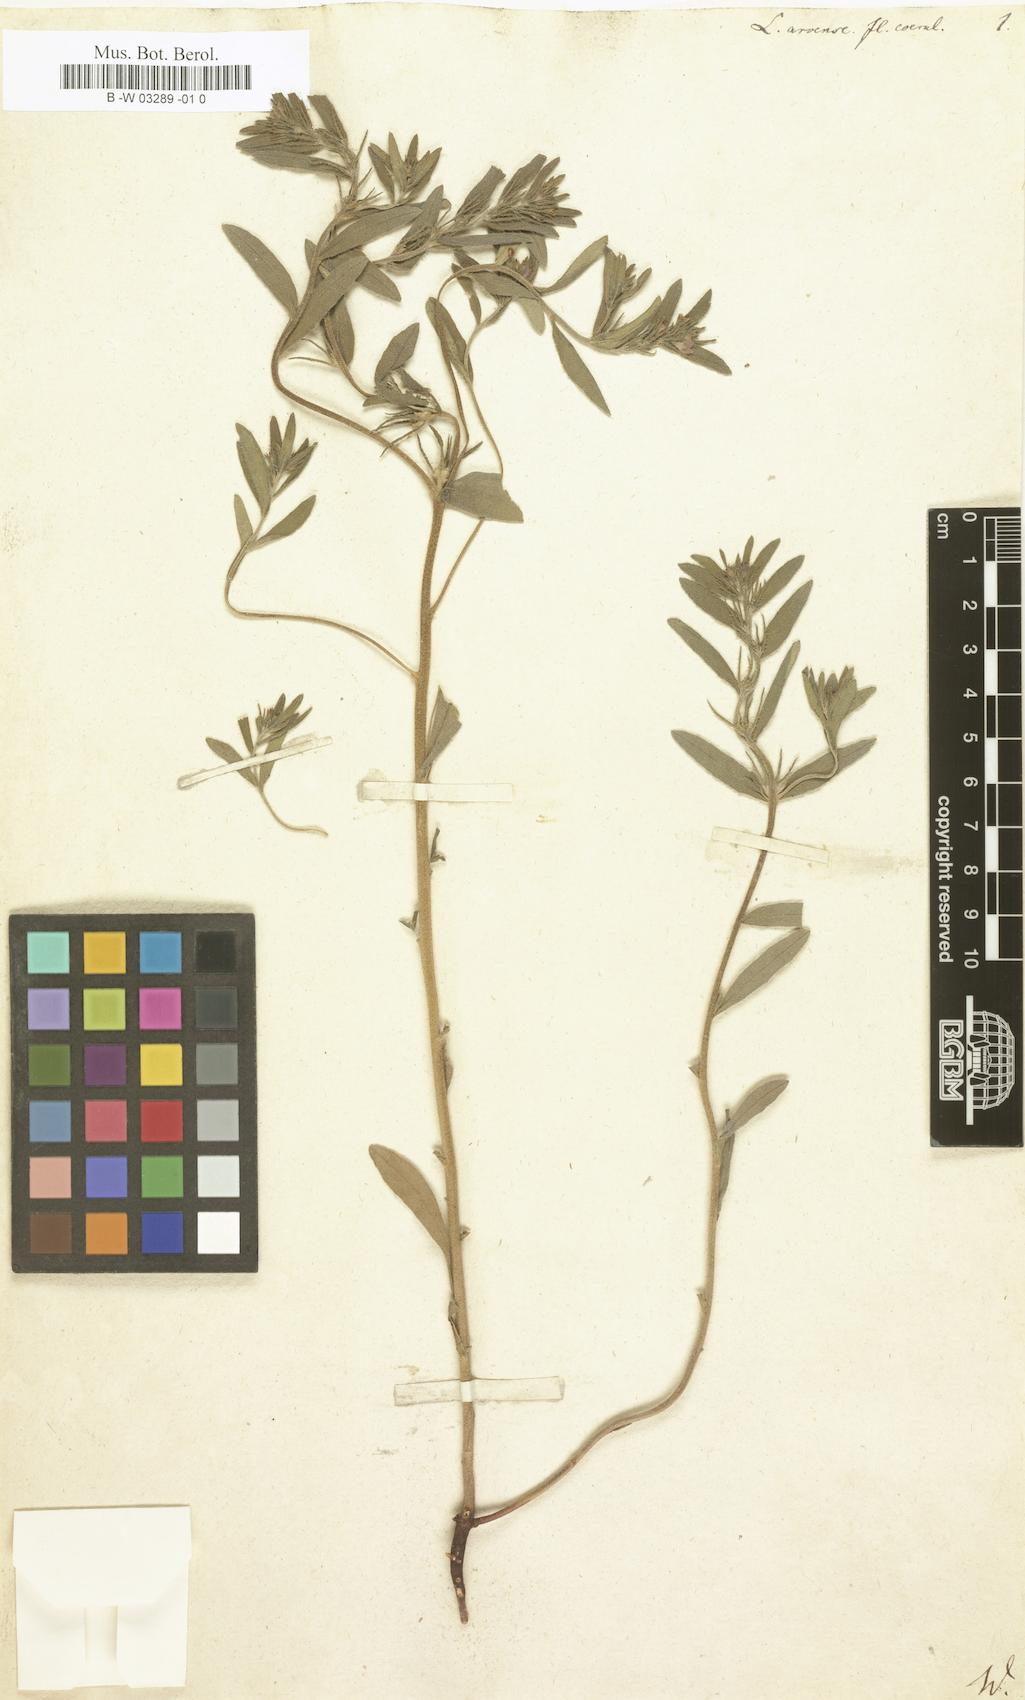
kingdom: Plantae
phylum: Tracheophyta
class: Magnoliopsida
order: Boraginales
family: Boraginaceae
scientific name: Boraginaceae
